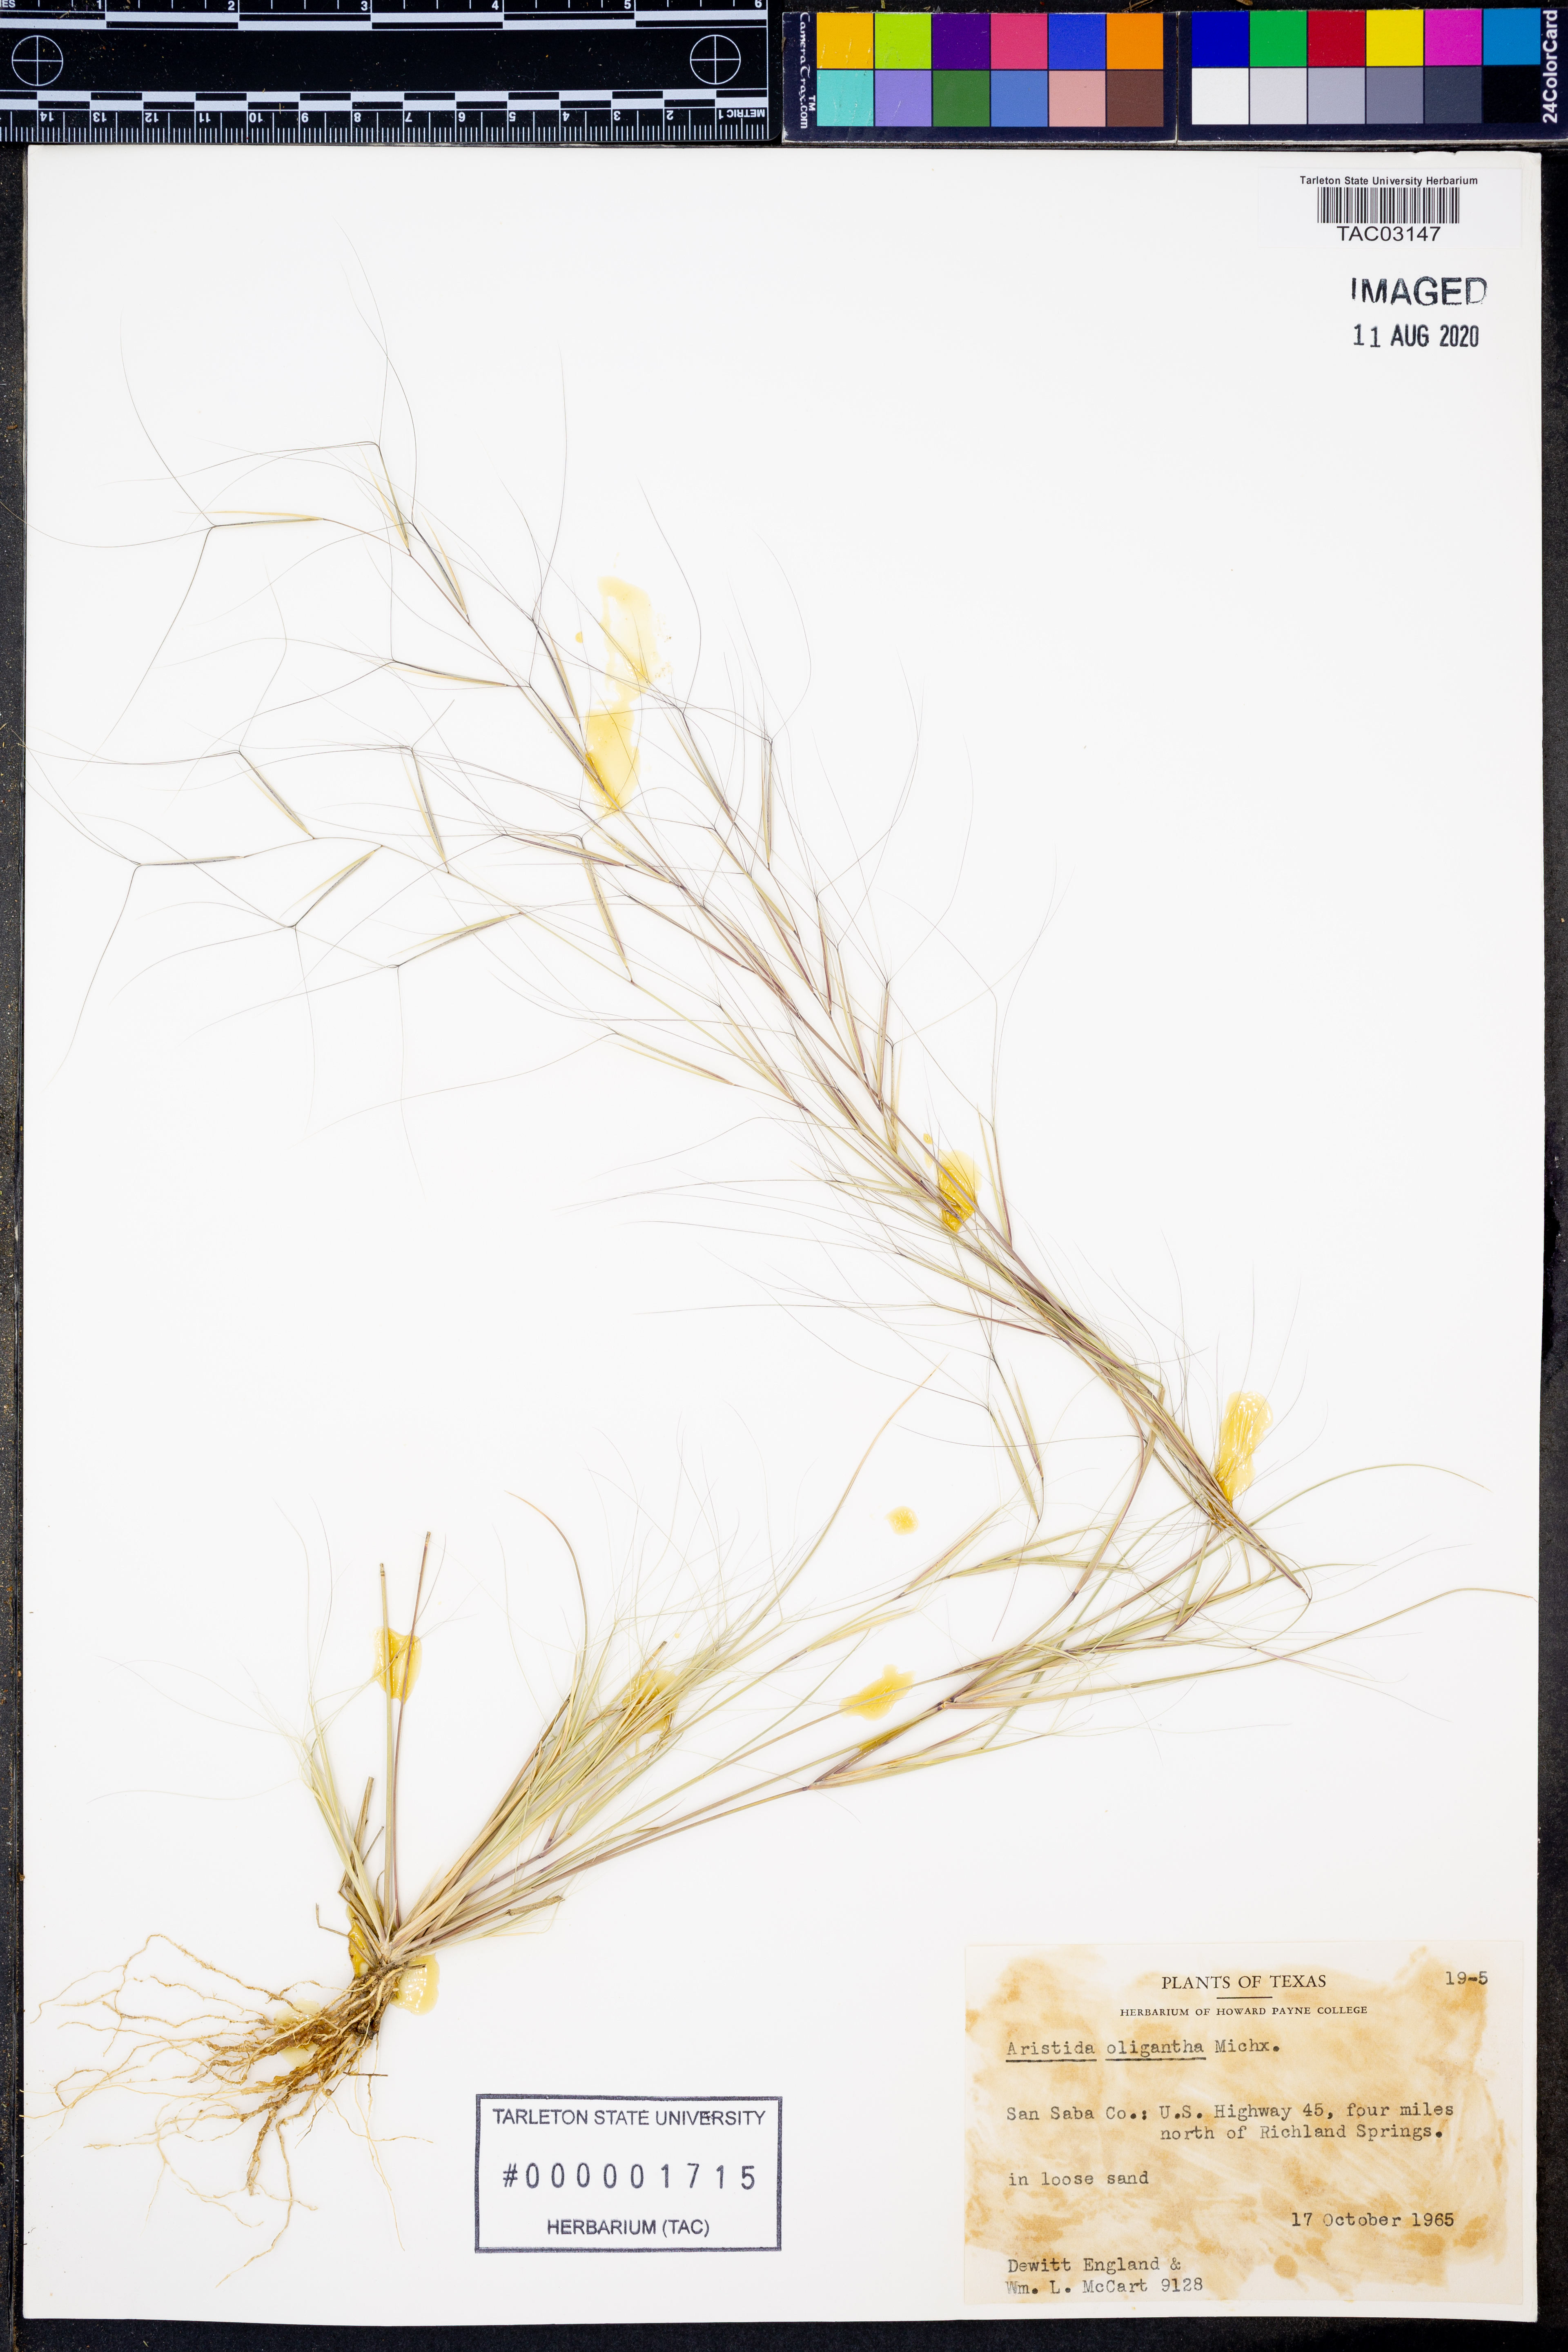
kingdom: Plantae
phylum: Tracheophyta
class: Liliopsida
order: Poales
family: Poaceae
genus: Aristida
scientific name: Aristida oligantha
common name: Few-flowered aristida
